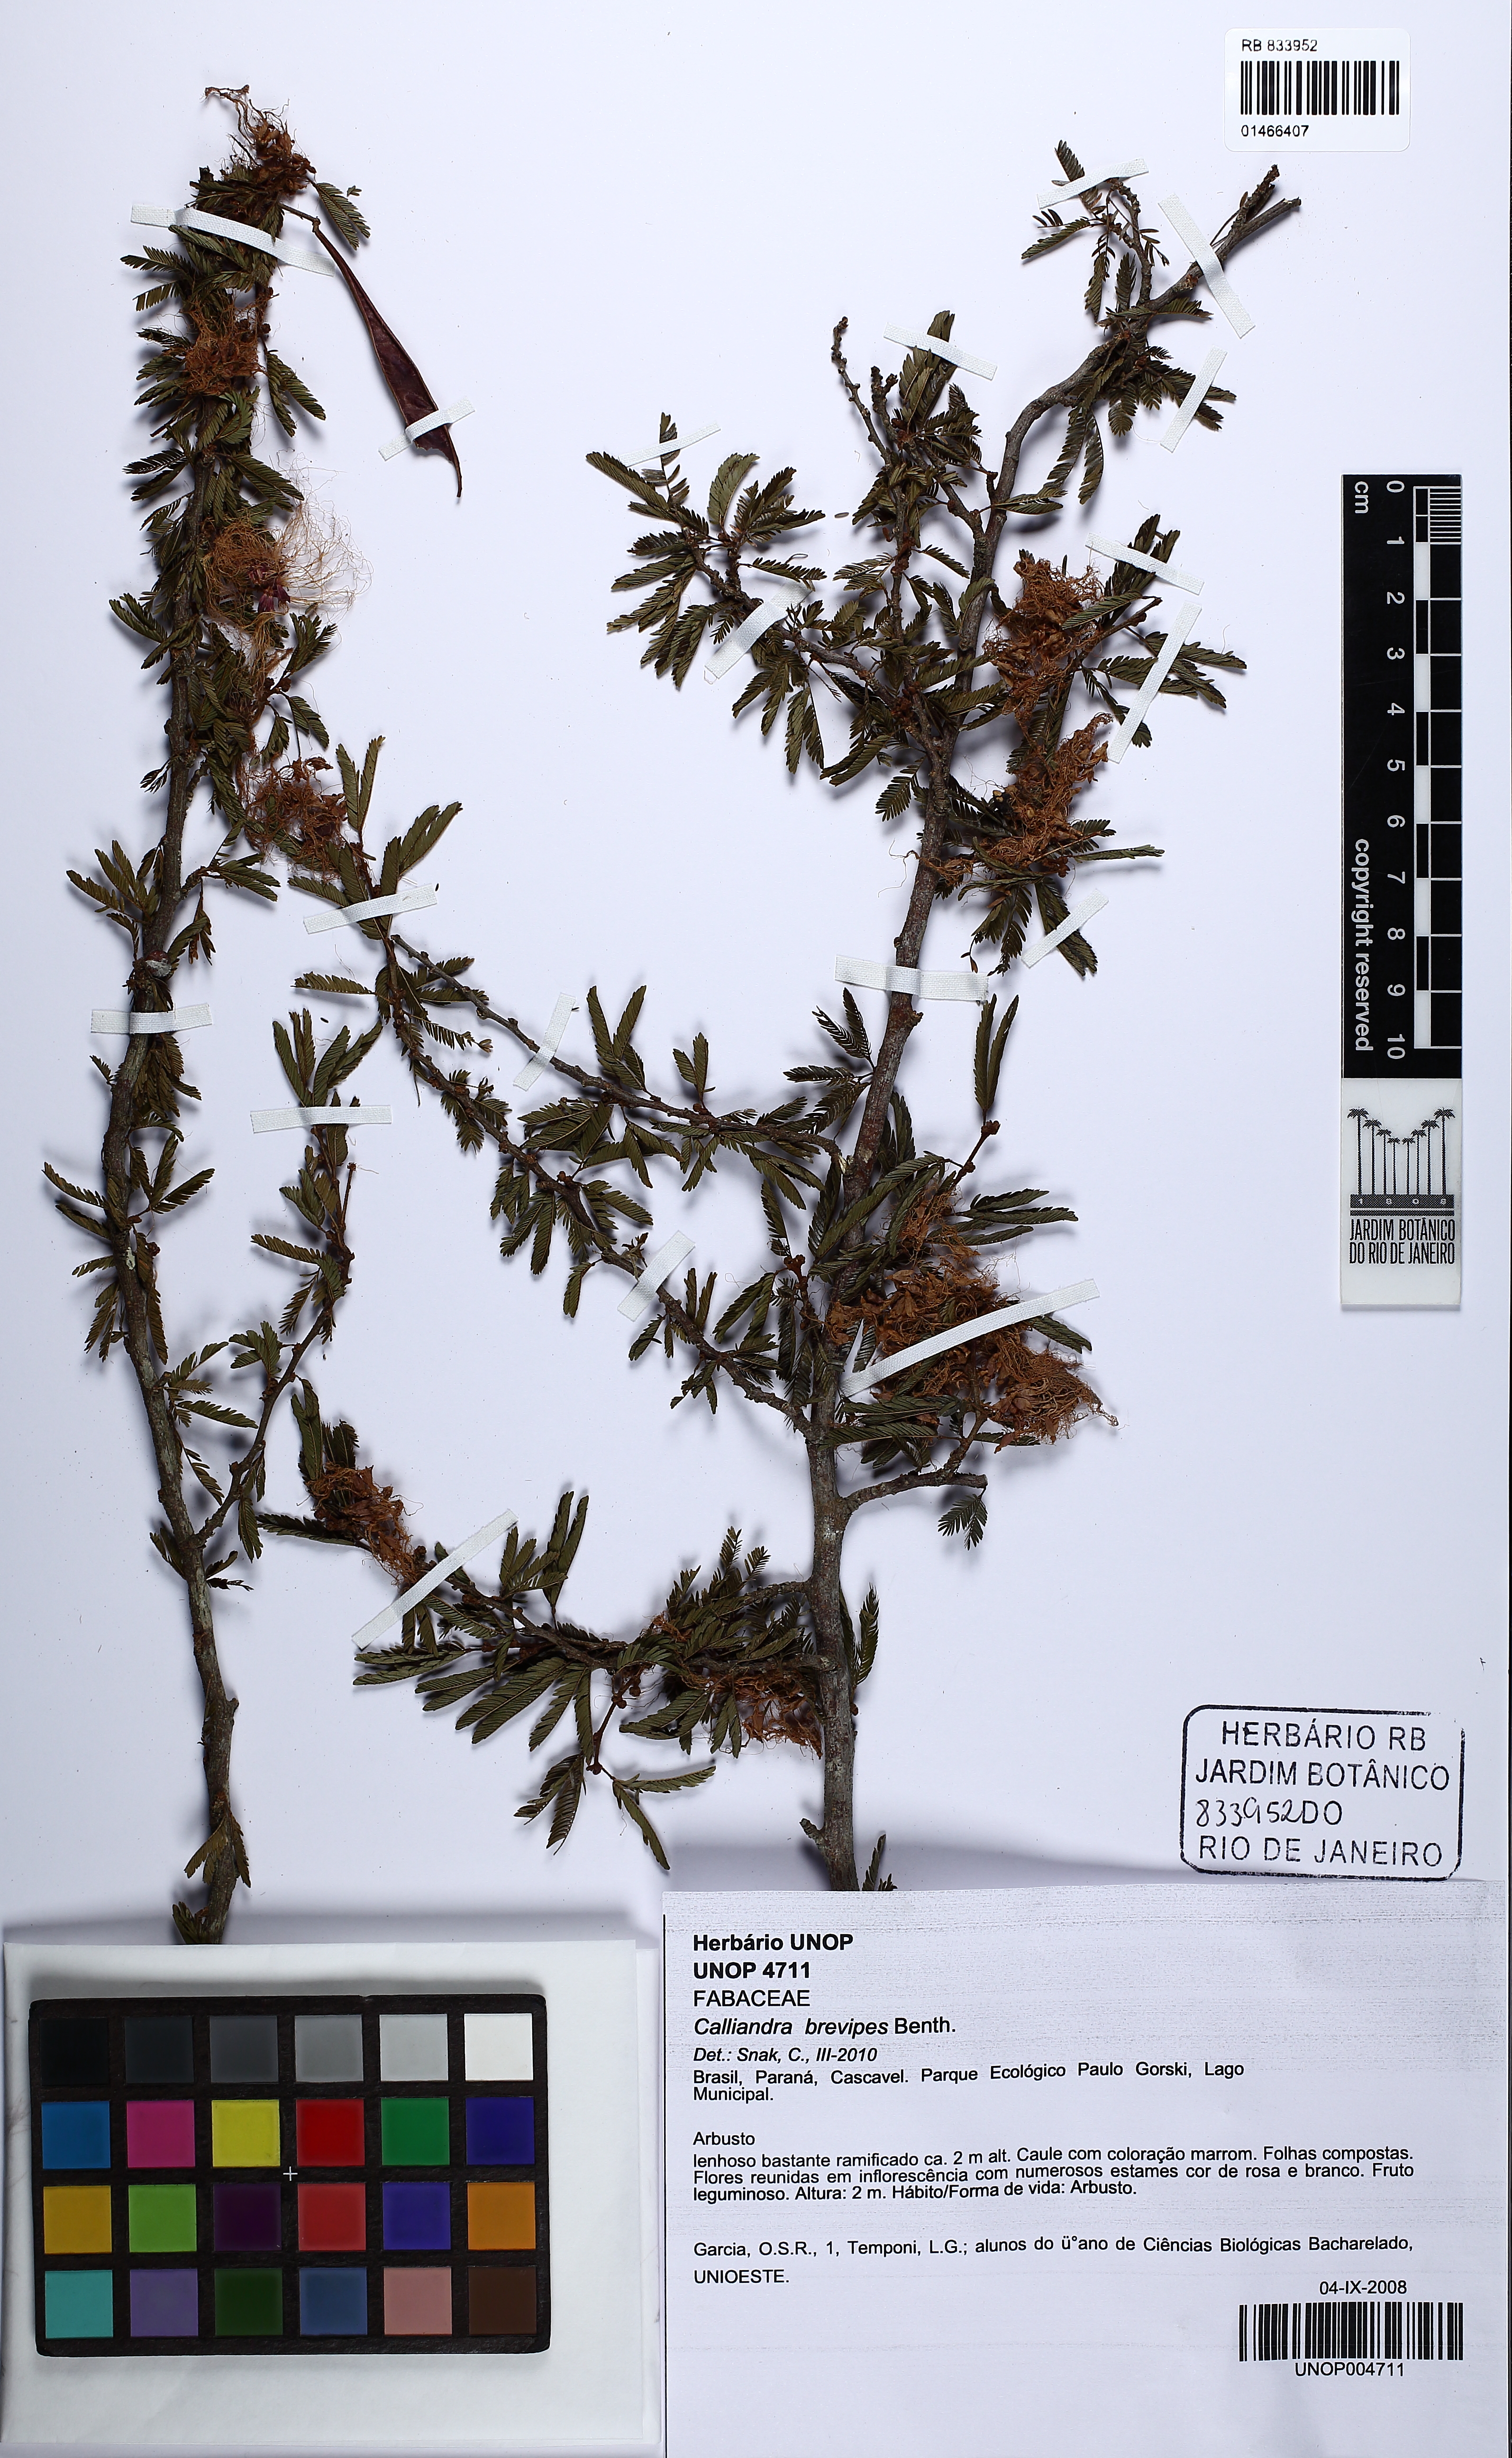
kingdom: Plantae
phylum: Tracheophyta
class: Magnoliopsida
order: Fabales
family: Fabaceae
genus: Calliandra
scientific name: Calliandra fasciculata
